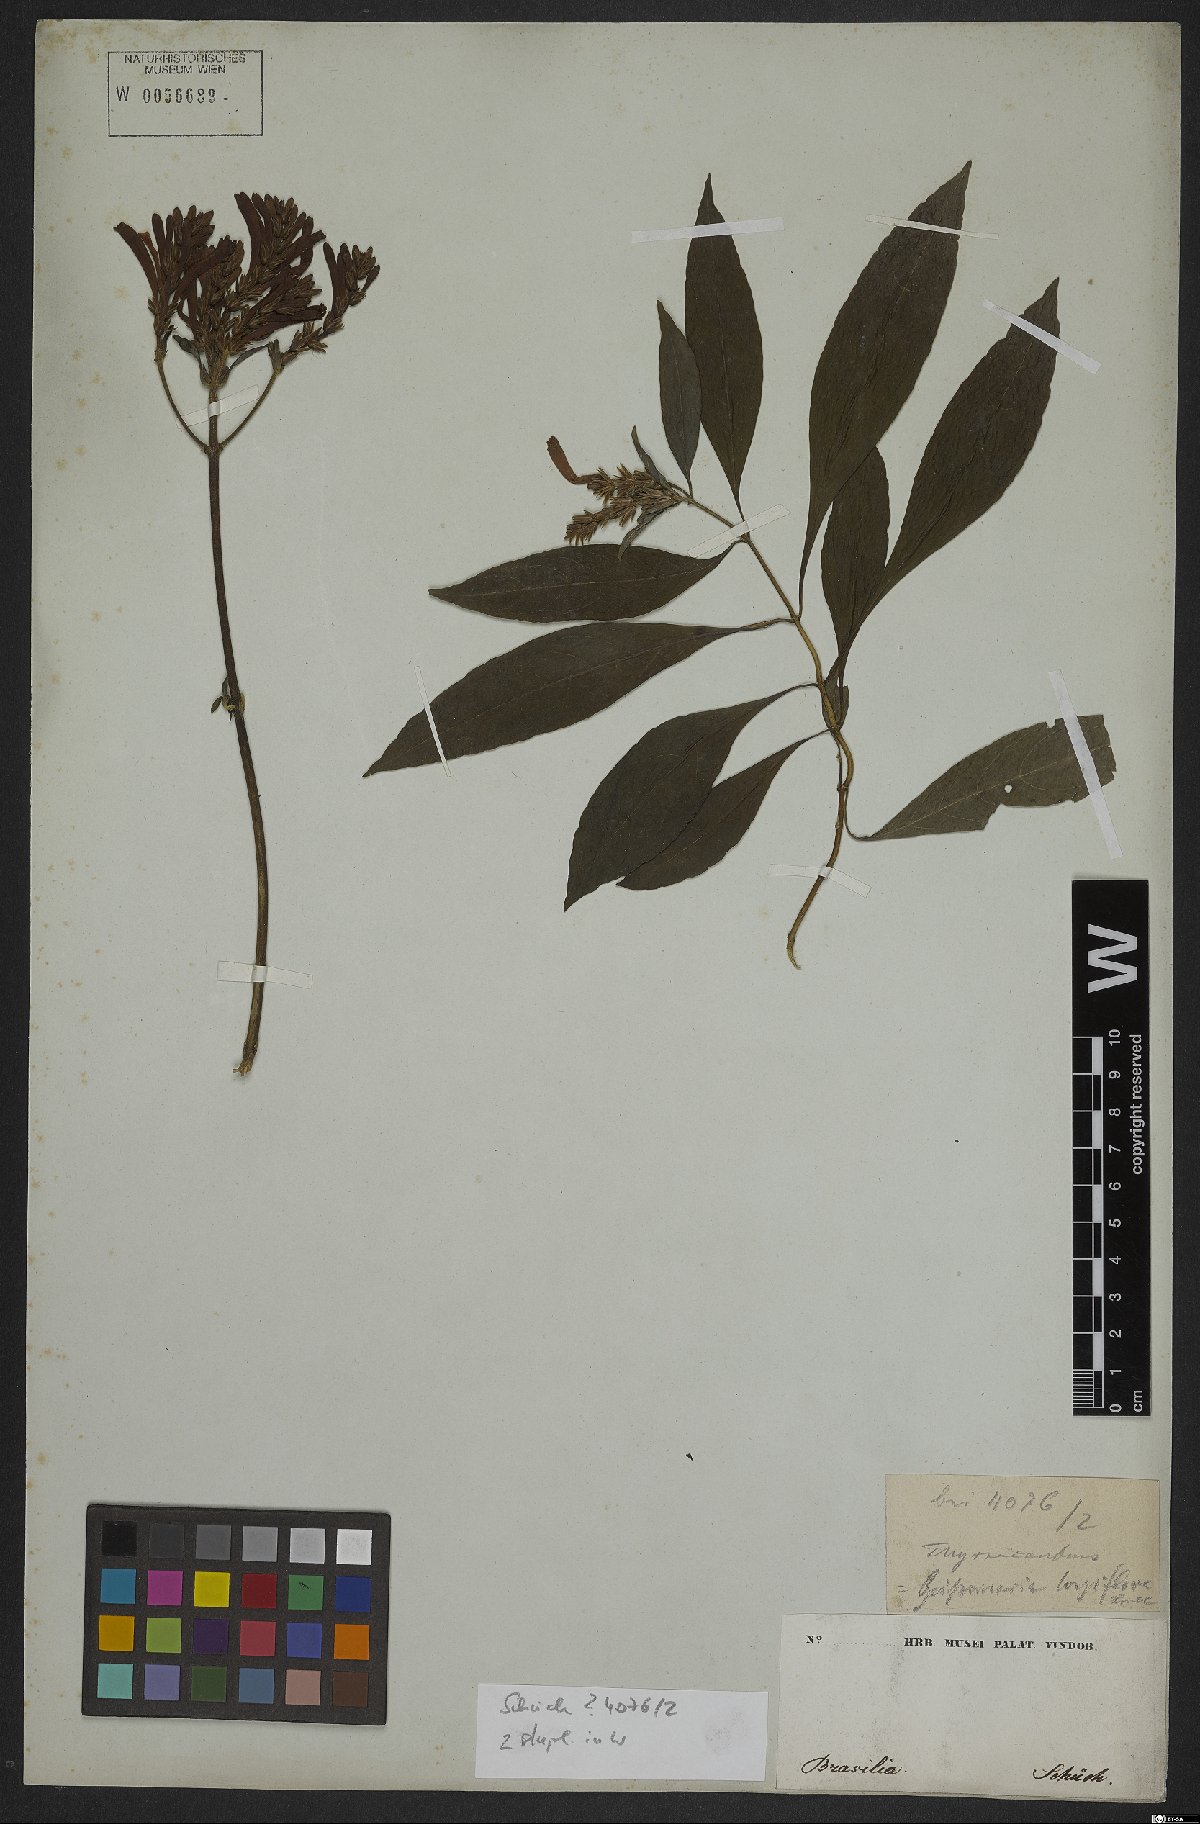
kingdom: Plantae
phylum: Tracheophyta
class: Magnoliopsida
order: Lamiales
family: Acanthaceae
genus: Aphelandra
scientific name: Aphelandra longiflora
